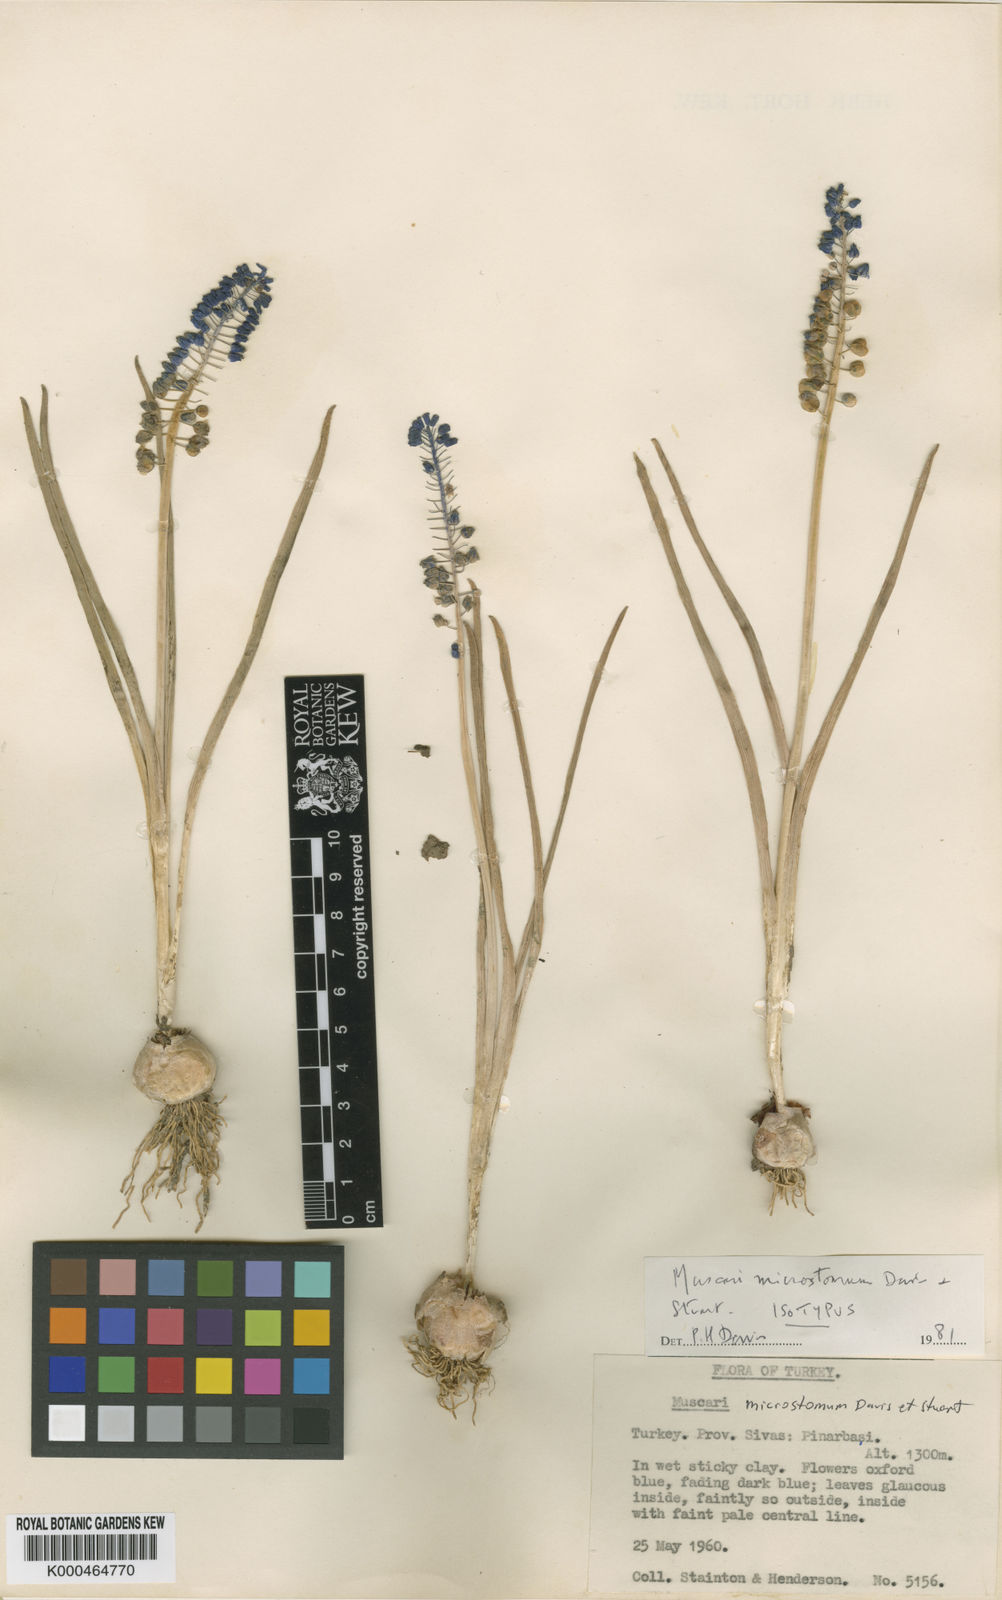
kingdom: Plantae
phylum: Tracheophyta
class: Liliopsida
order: Asparagales
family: Asparagaceae
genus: Muscari
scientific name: Muscari microstomum
